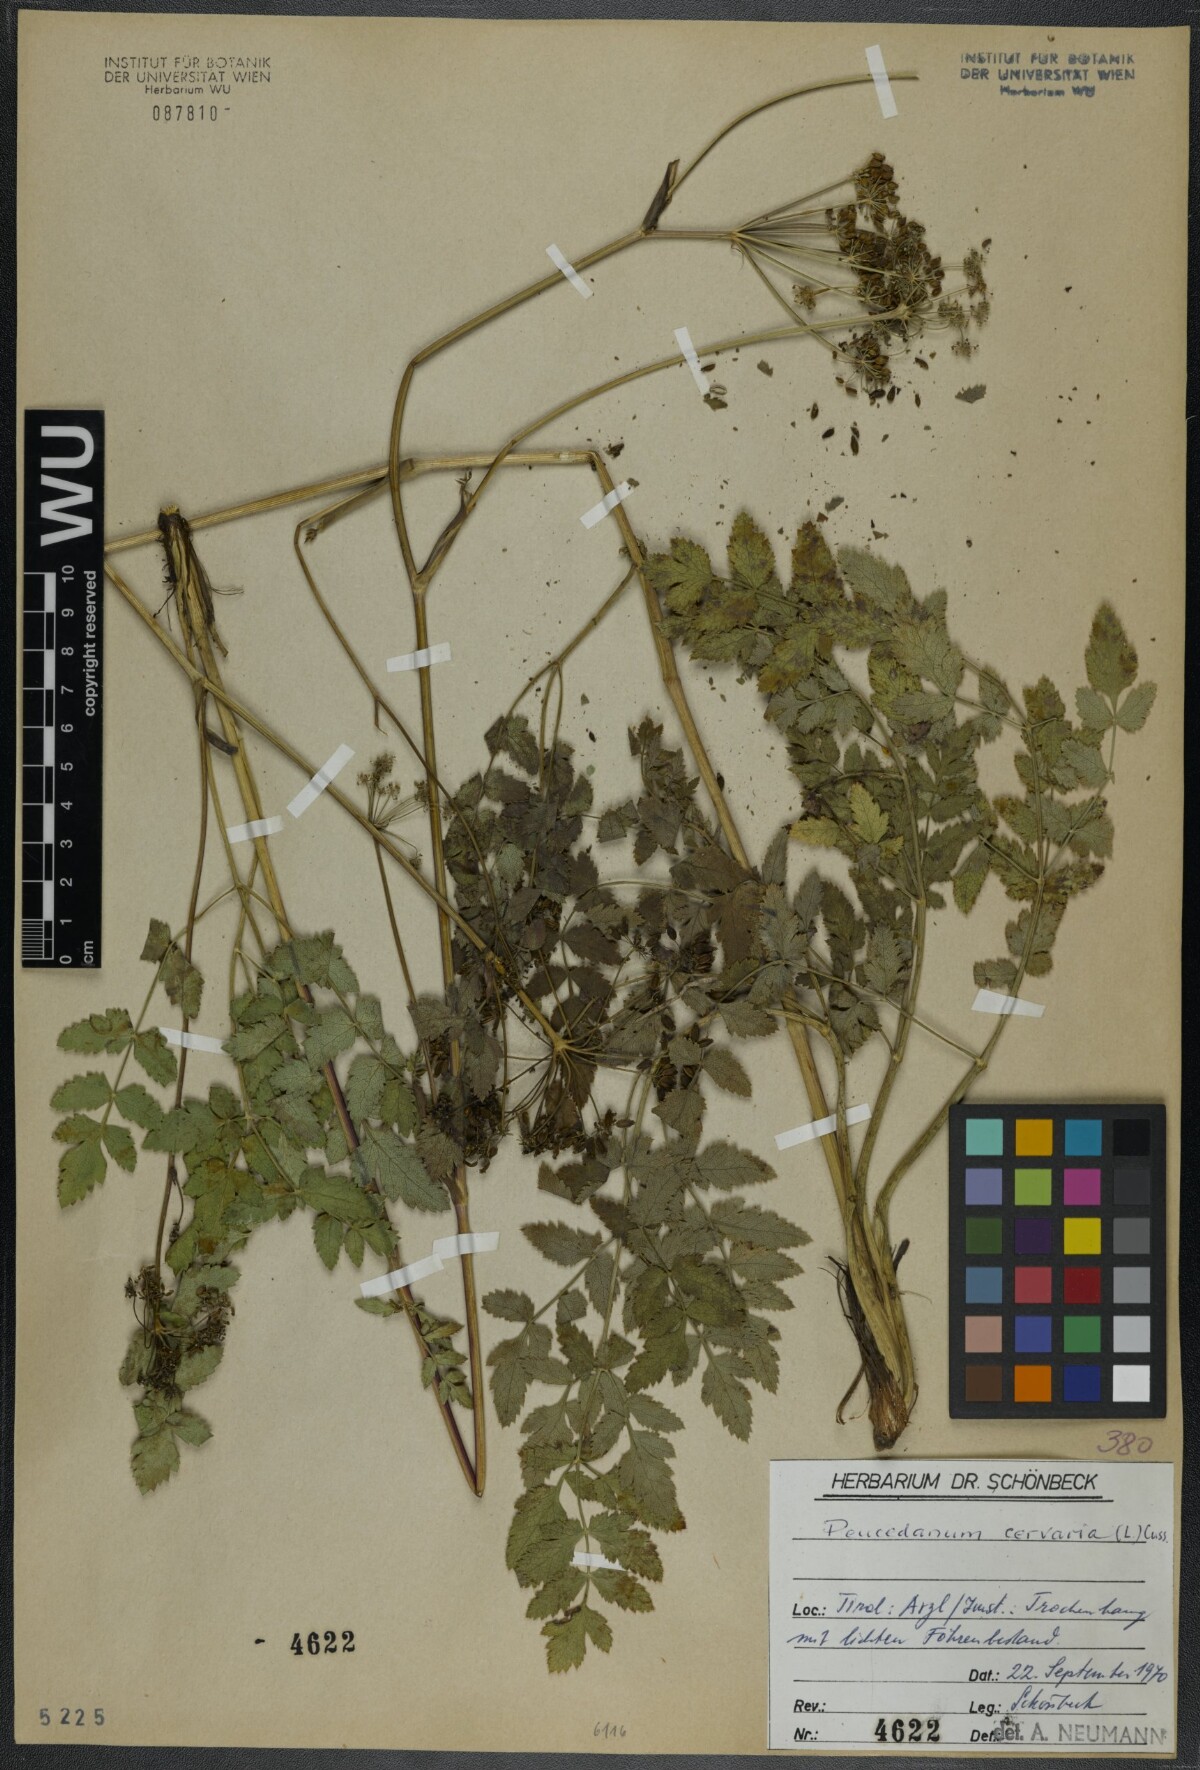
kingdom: Plantae
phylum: Tracheophyta
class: Magnoliopsida
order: Apiales
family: Apiaceae
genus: Cervaria
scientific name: Cervaria rivini
